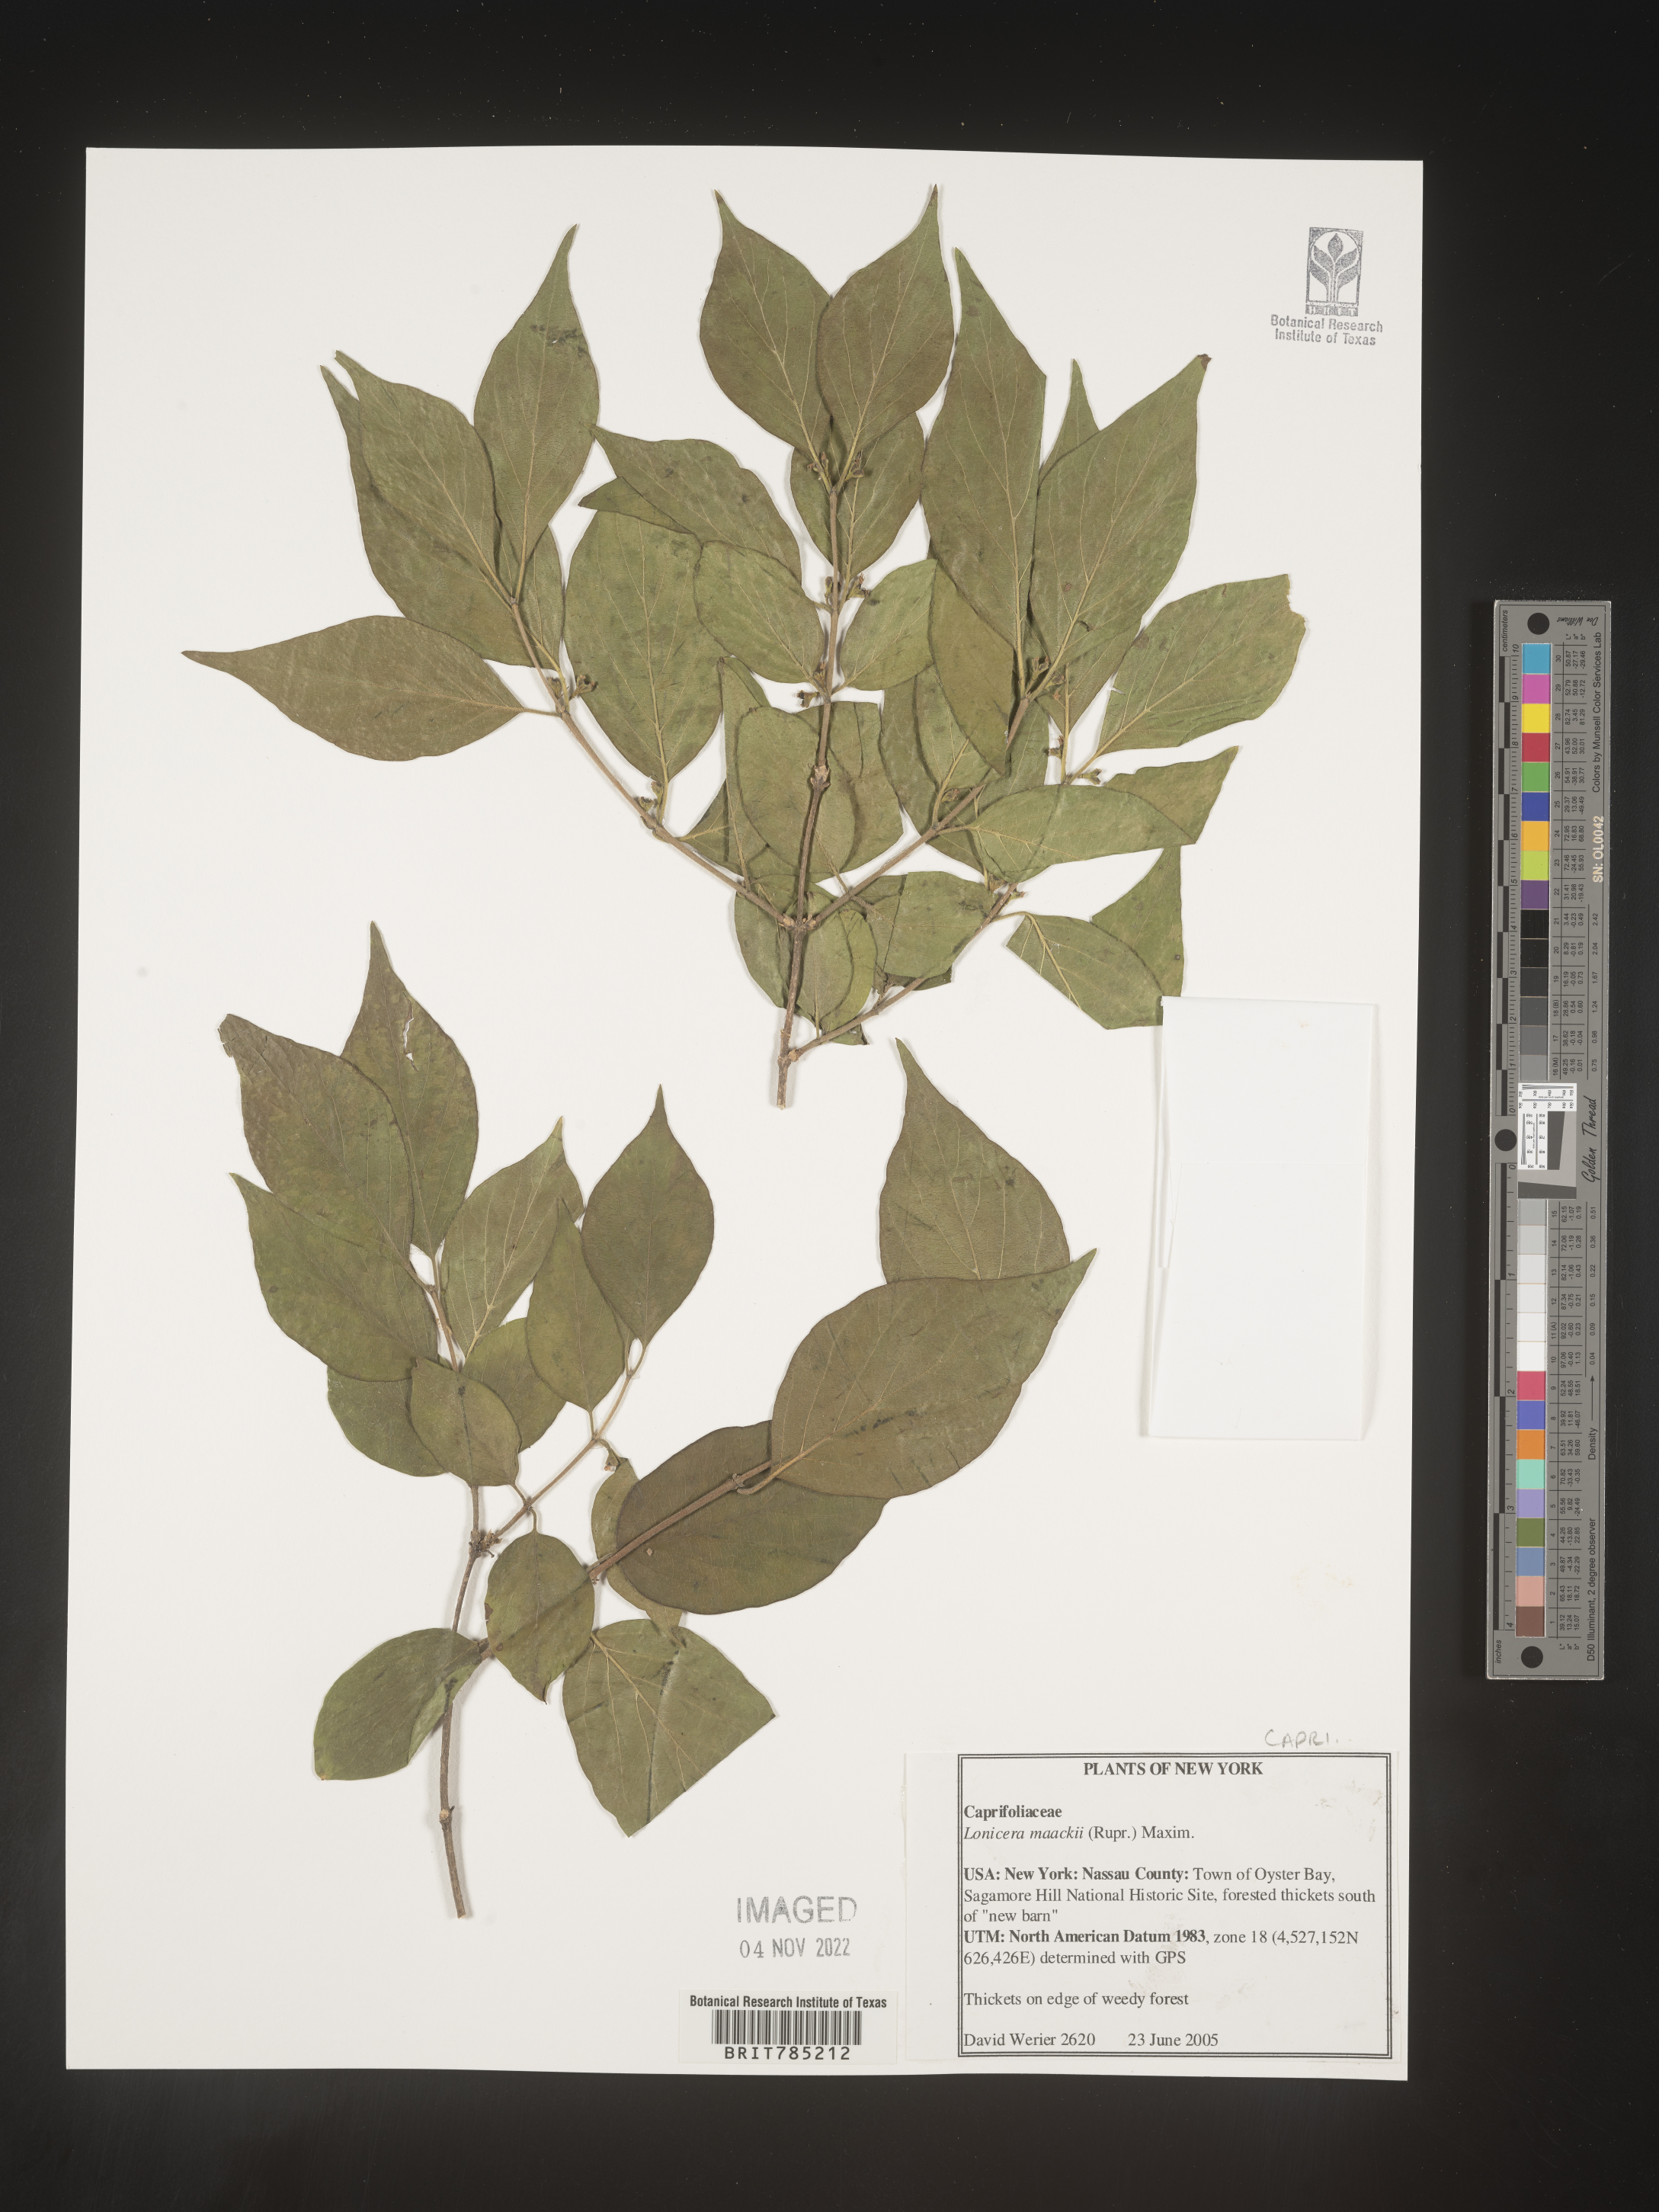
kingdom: Plantae
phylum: Tracheophyta
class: Magnoliopsida
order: Dipsacales
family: Caprifoliaceae
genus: Lonicera
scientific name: Lonicera
